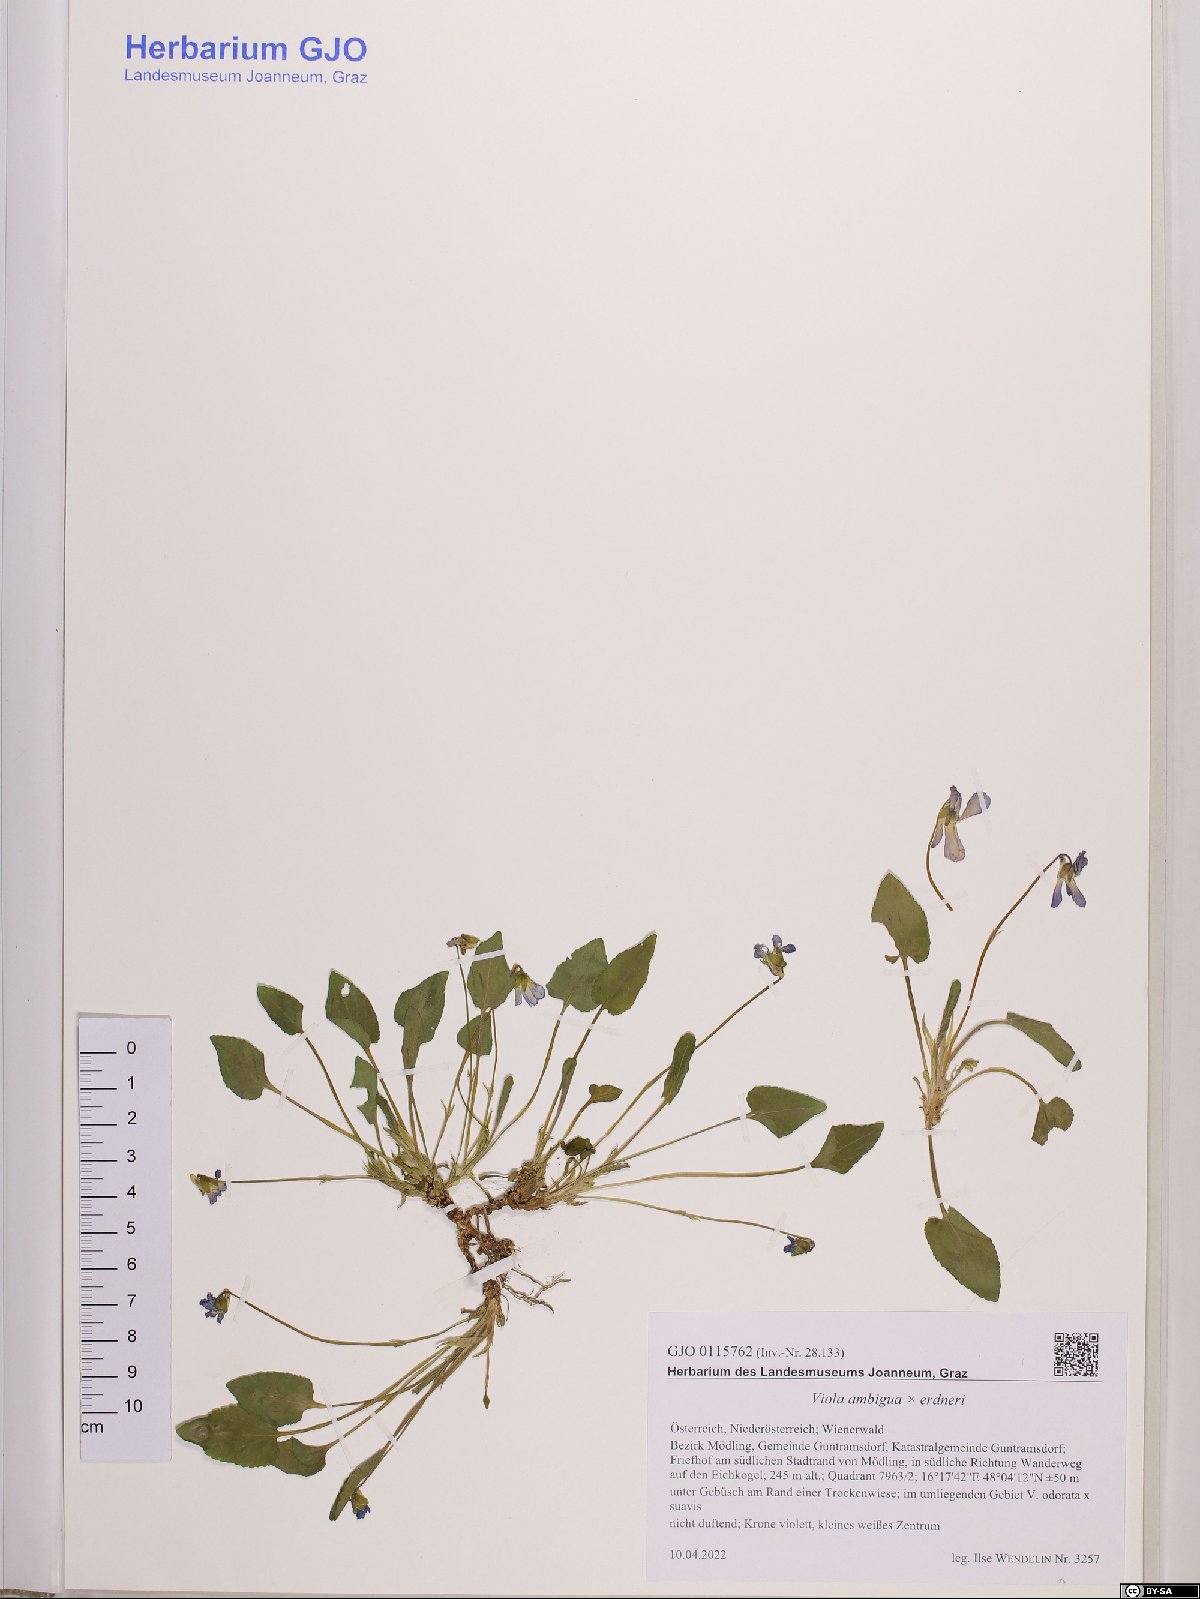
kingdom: Plantae
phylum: Tracheophyta
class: Magnoliopsida
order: Malpighiales
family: Violaceae
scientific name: Violaceae
